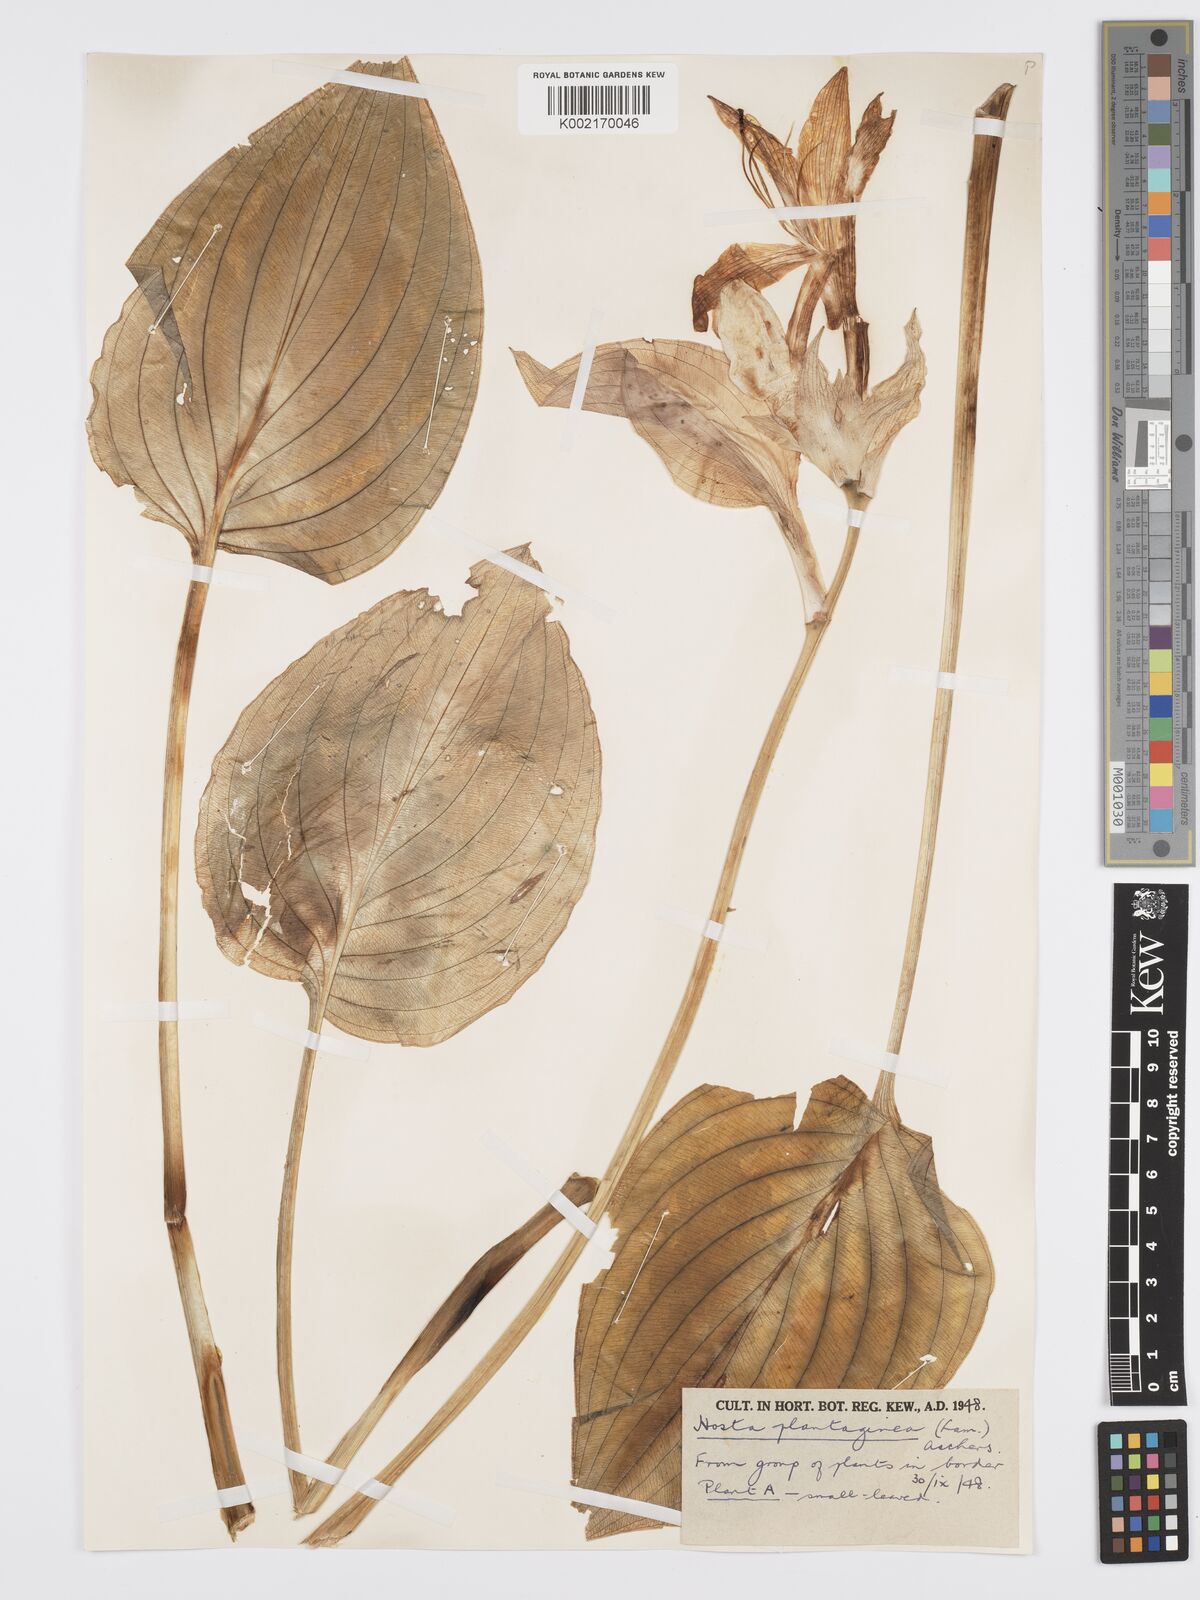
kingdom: Plantae
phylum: Tracheophyta
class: Liliopsida
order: Asparagales
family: Asparagaceae
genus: Hosta
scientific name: Hosta plantaginea
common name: August-lily
